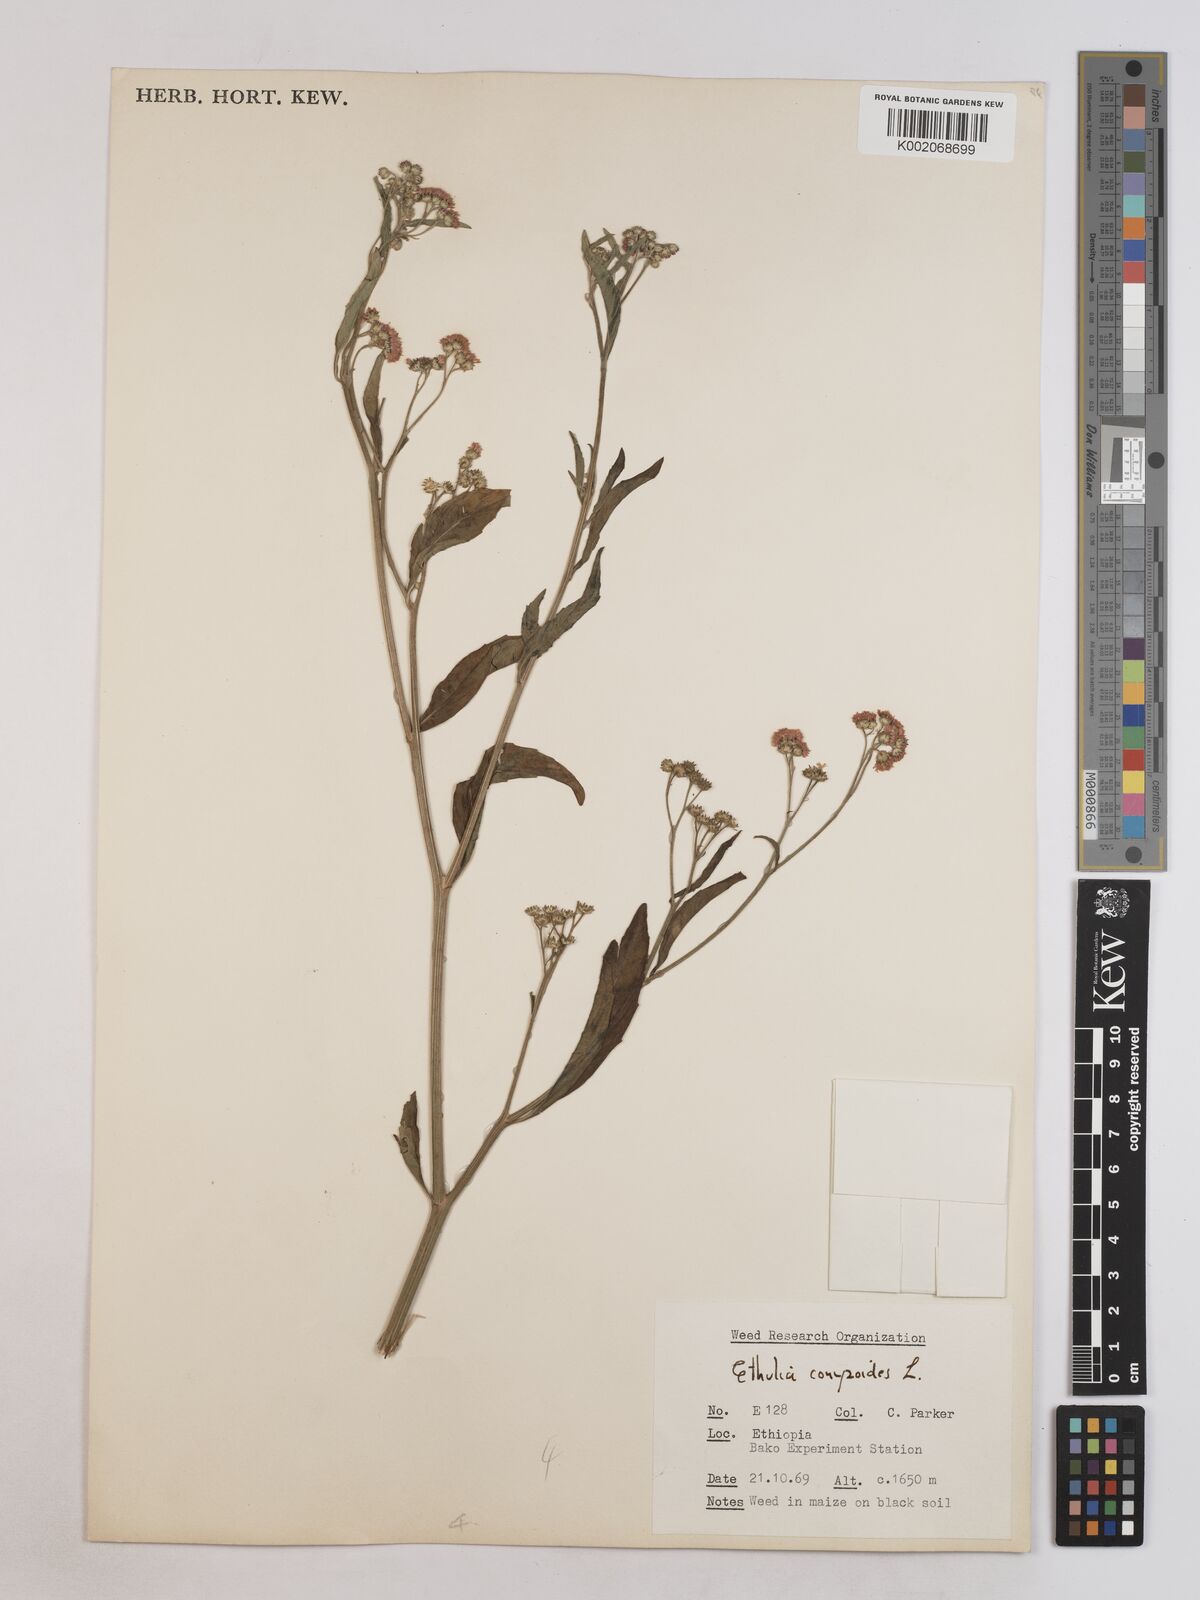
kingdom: Plantae
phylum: Tracheophyta
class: Magnoliopsida
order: Asterales
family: Asteraceae
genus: Ethulia
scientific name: Ethulia gracilis
